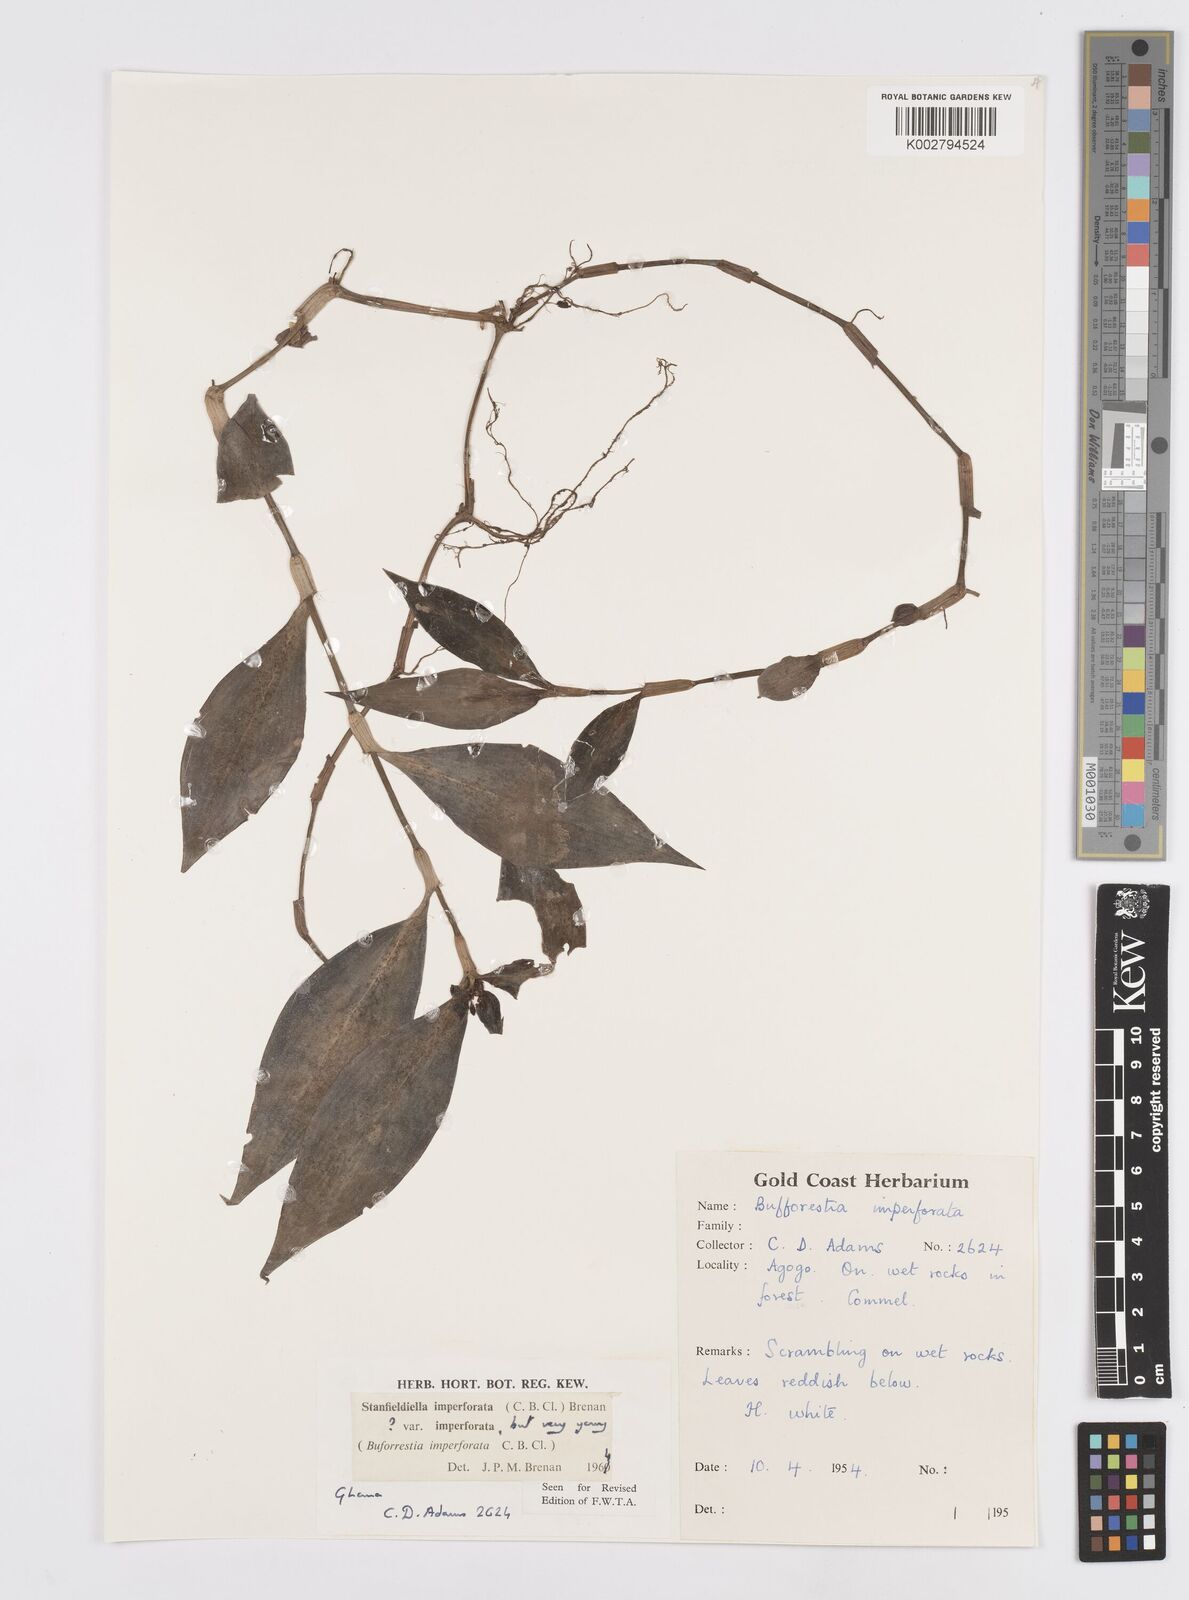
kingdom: Plantae
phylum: Tracheophyta
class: Liliopsida
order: Commelinales
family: Commelinaceae
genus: Stanfieldiella
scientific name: Stanfieldiella imperforata
